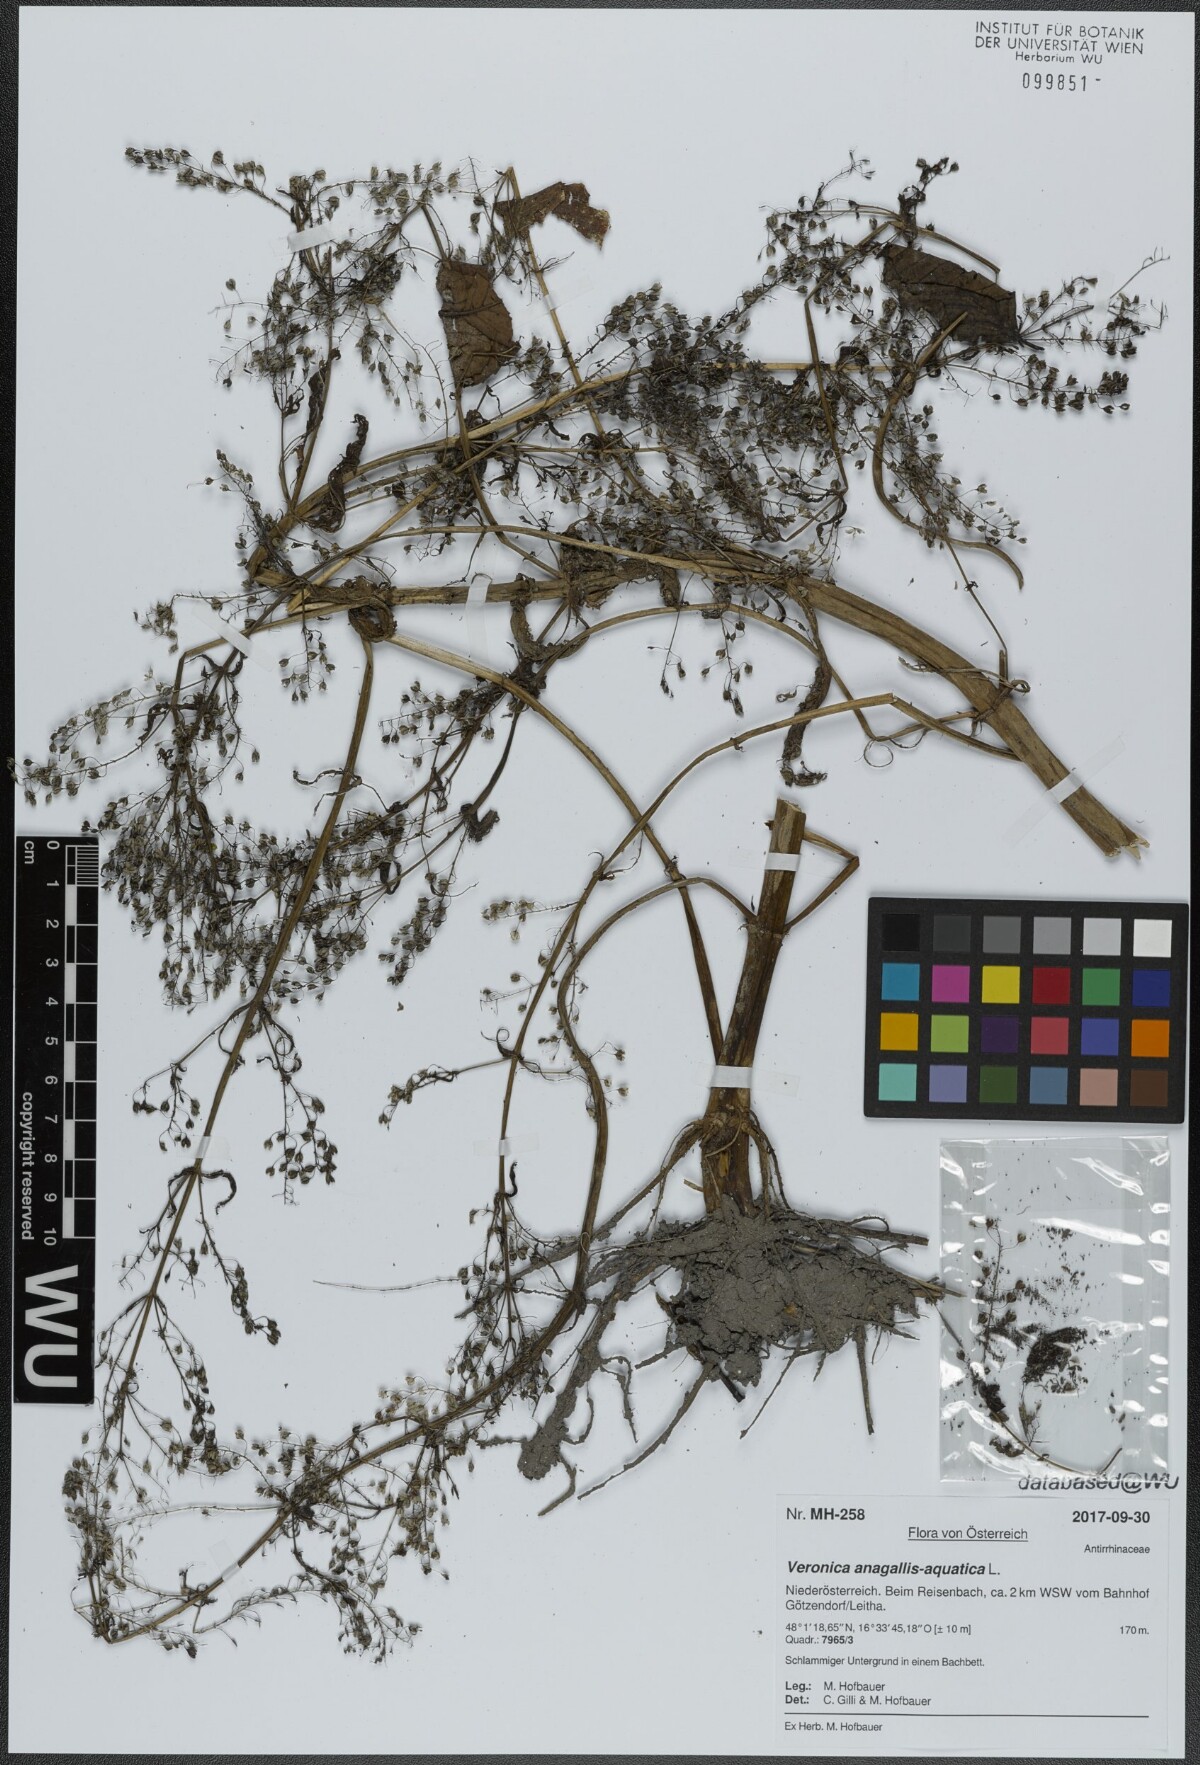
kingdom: Plantae
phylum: Tracheophyta
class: Magnoliopsida
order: Lamiales
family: Plantaginaceae
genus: Veronica
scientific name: Veronica anagallis-aquatica
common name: Water speedwell
